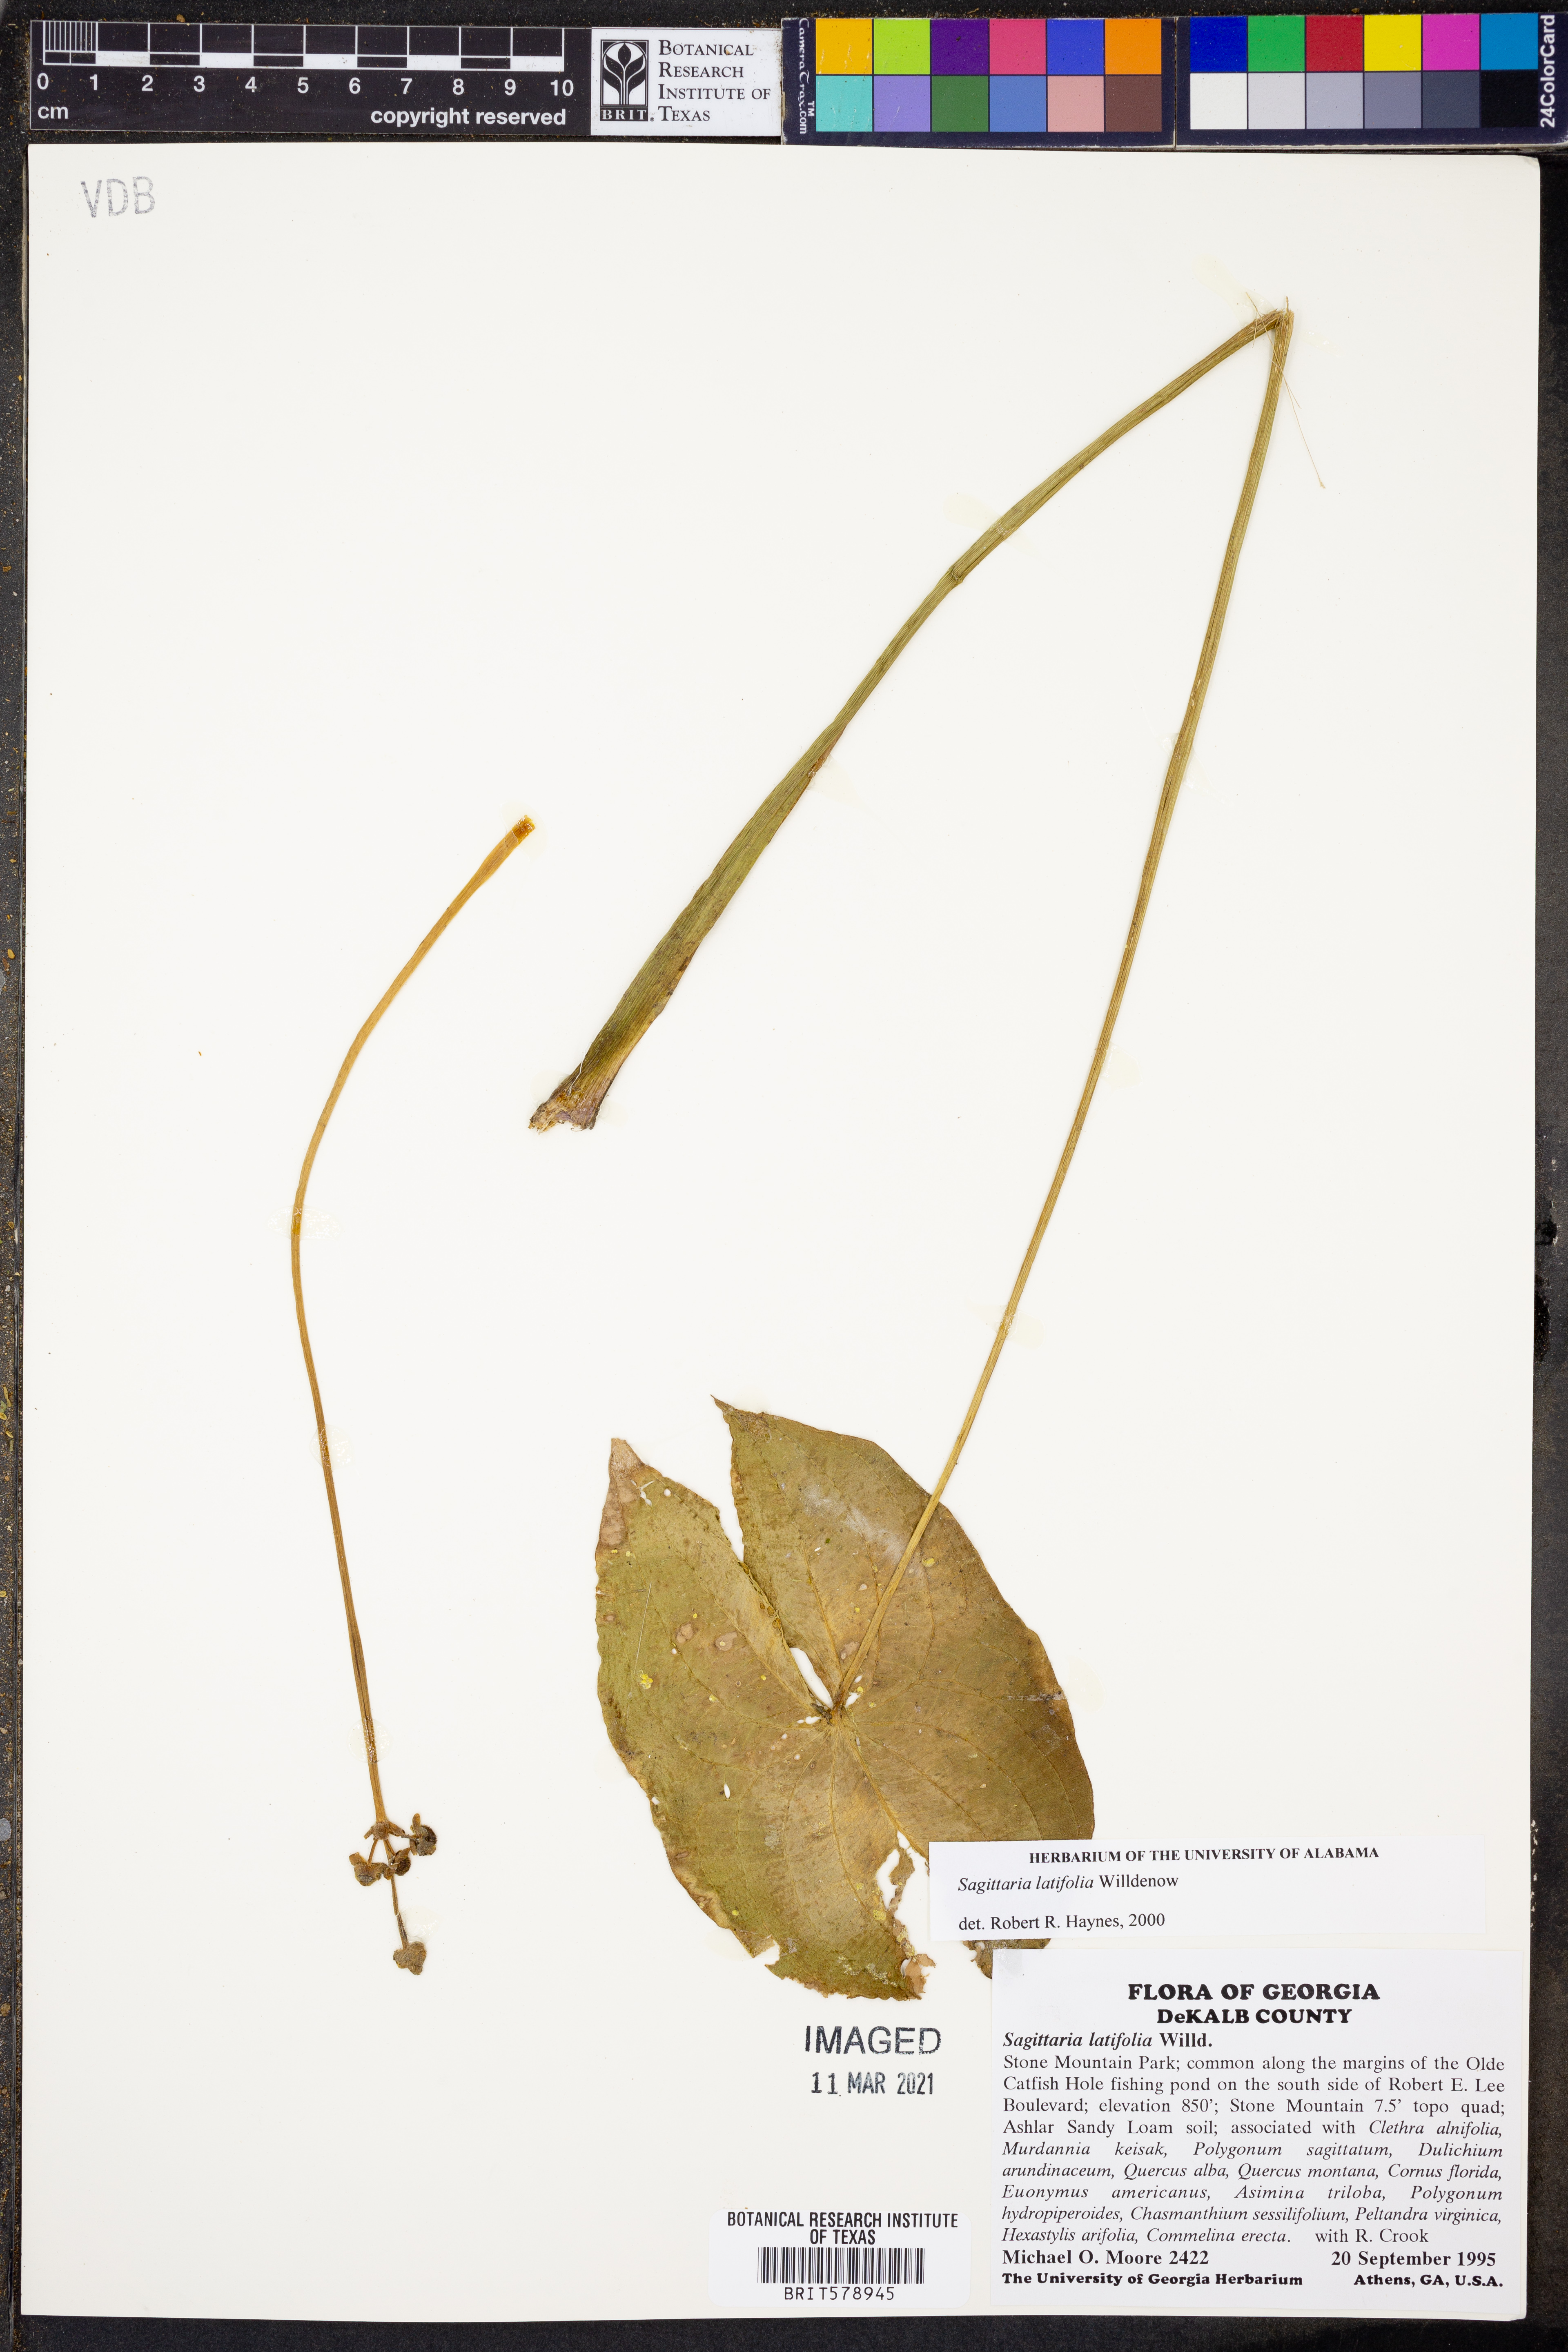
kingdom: Plantae
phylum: Tracheophyta
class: Liliopsida
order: Alismatales
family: Alismataceae
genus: Sagittaria
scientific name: Sagittaria latifolia
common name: Duck-potato
